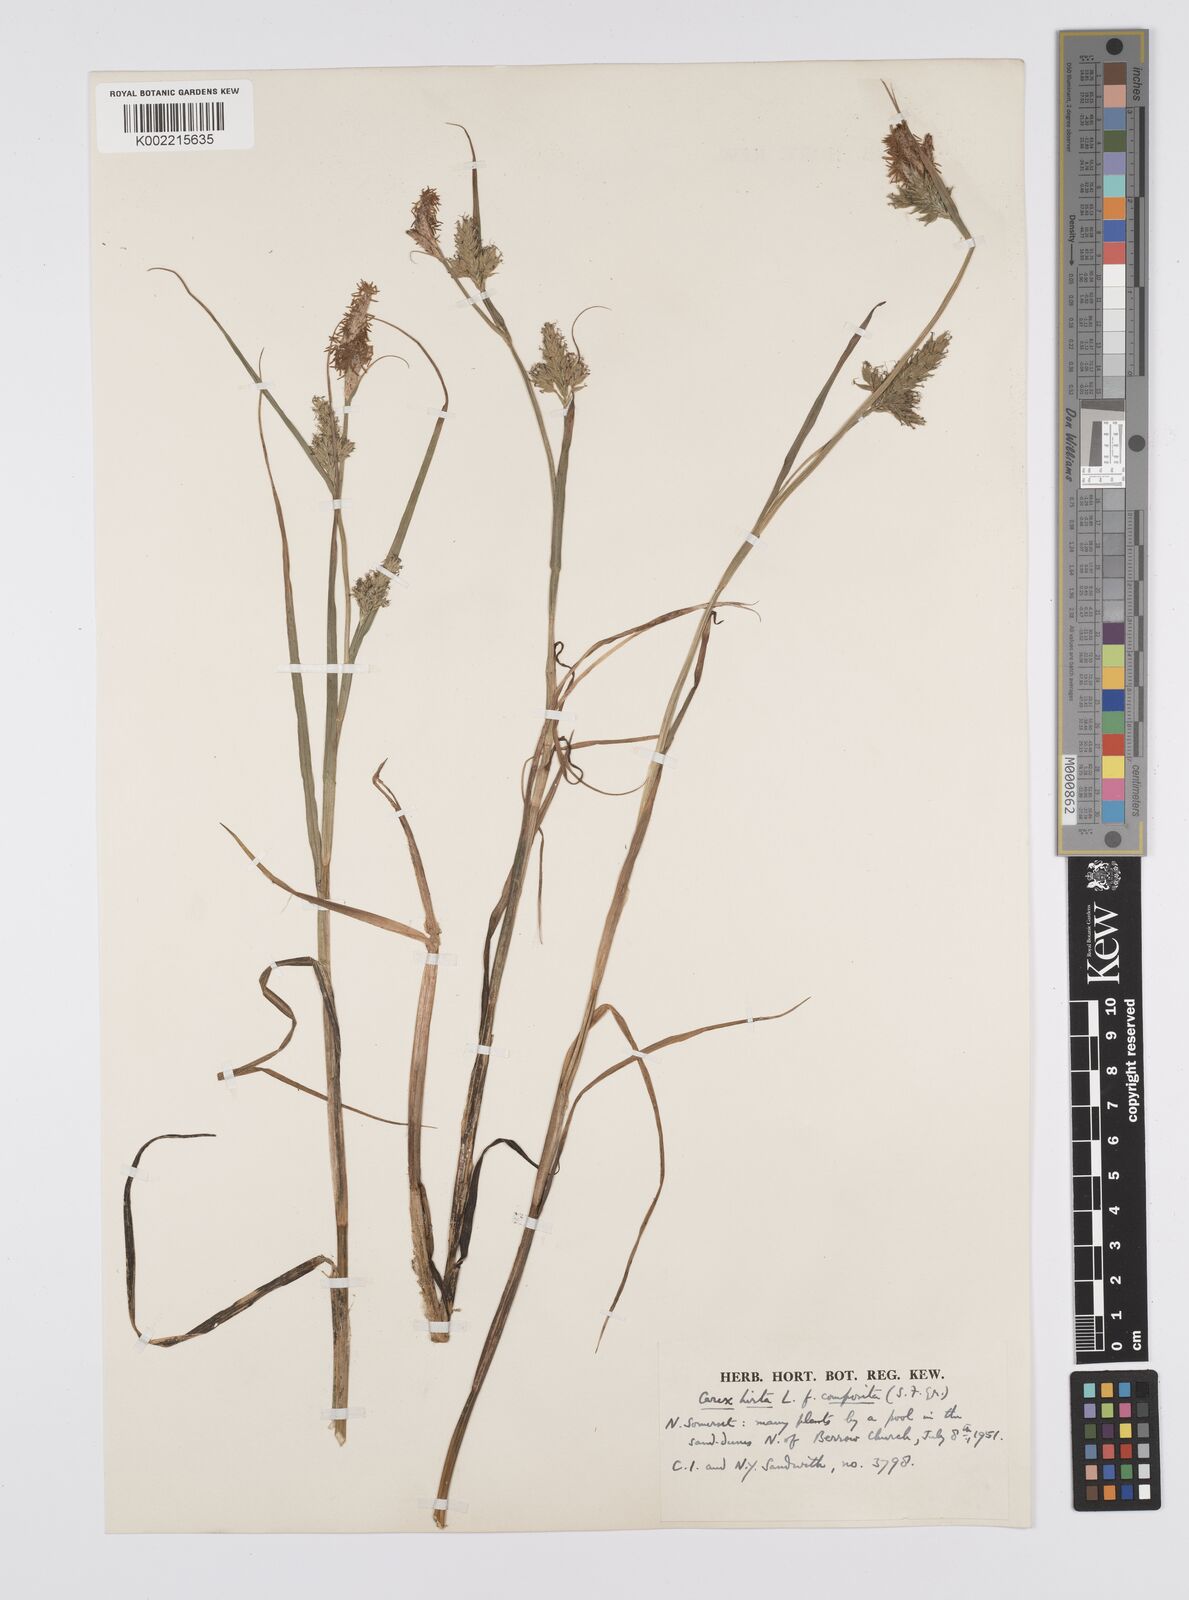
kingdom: Plantae
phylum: Tracheophyta
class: Liliopsida
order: Poales
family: Cyperaceae
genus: Carex
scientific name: Carex hirta
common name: Hairy sedge
